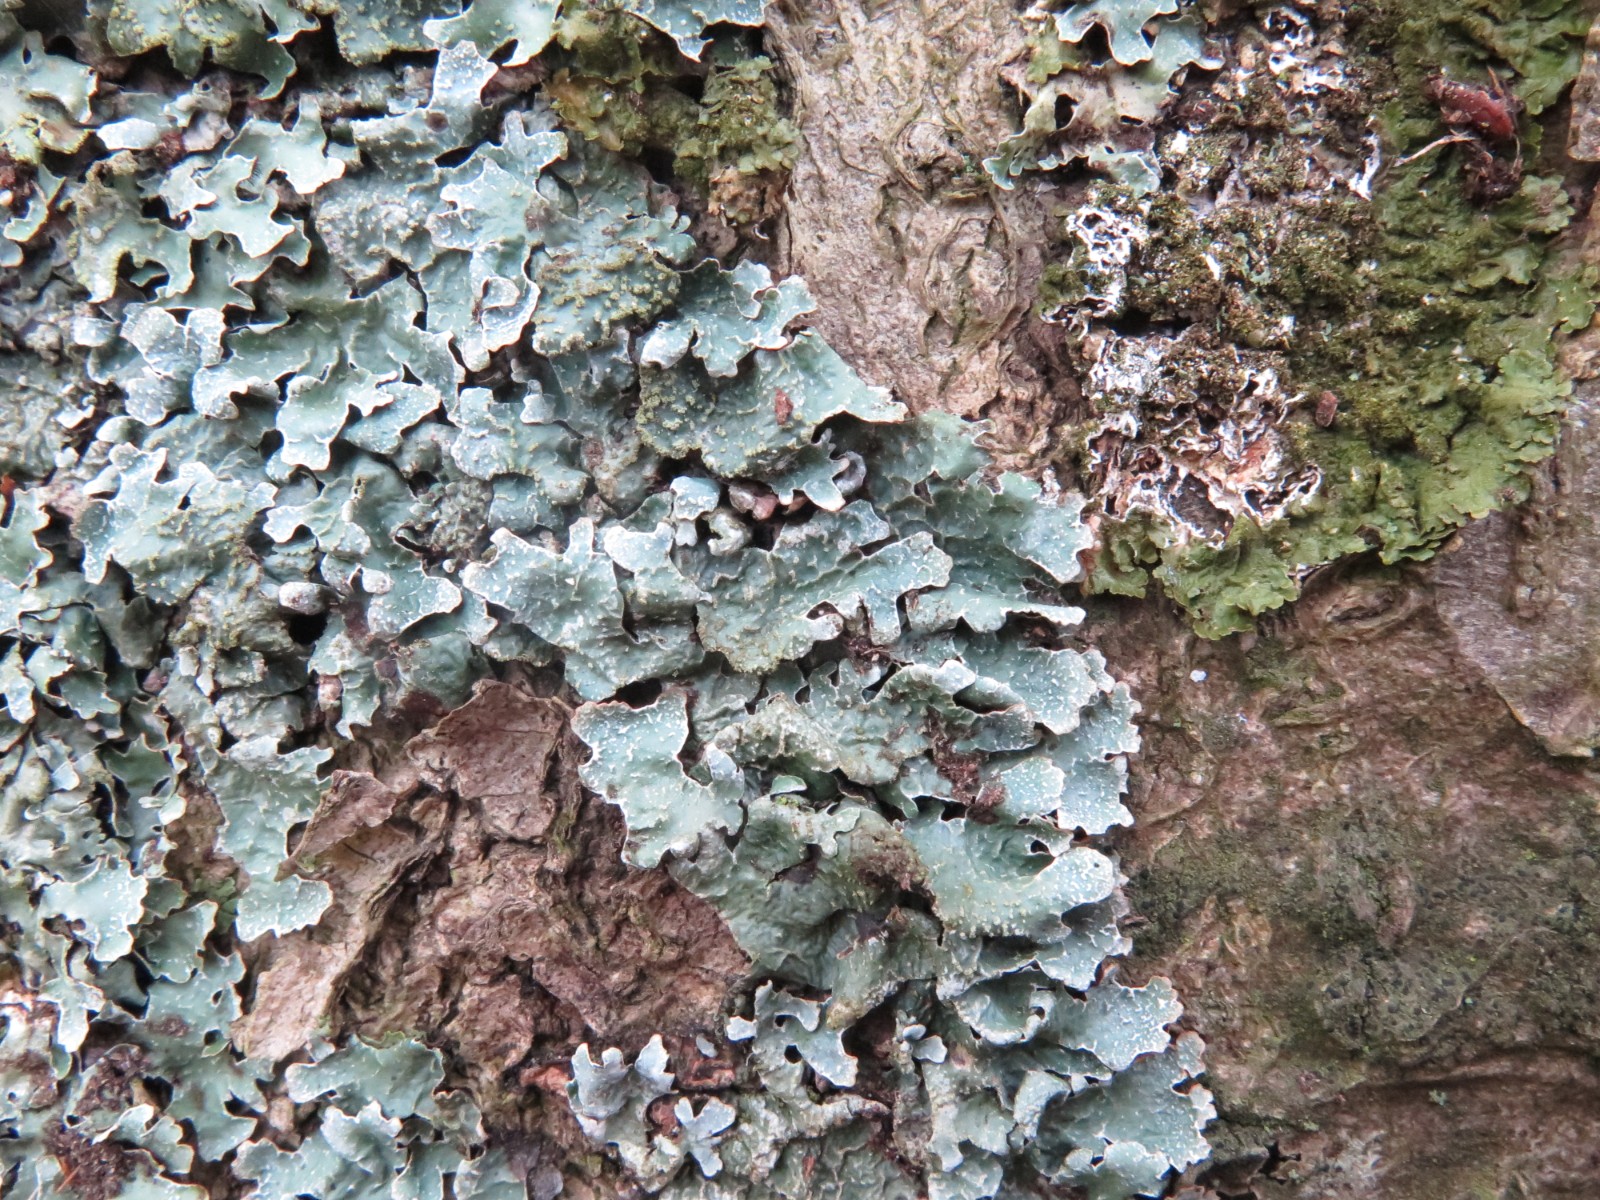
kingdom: Fungi
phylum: Ascomycota
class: Lecanoromycetes
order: Lecanorales
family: Parmeliaceae
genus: Parmelia
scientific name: Parmelia sulcata
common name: rynket skållav
